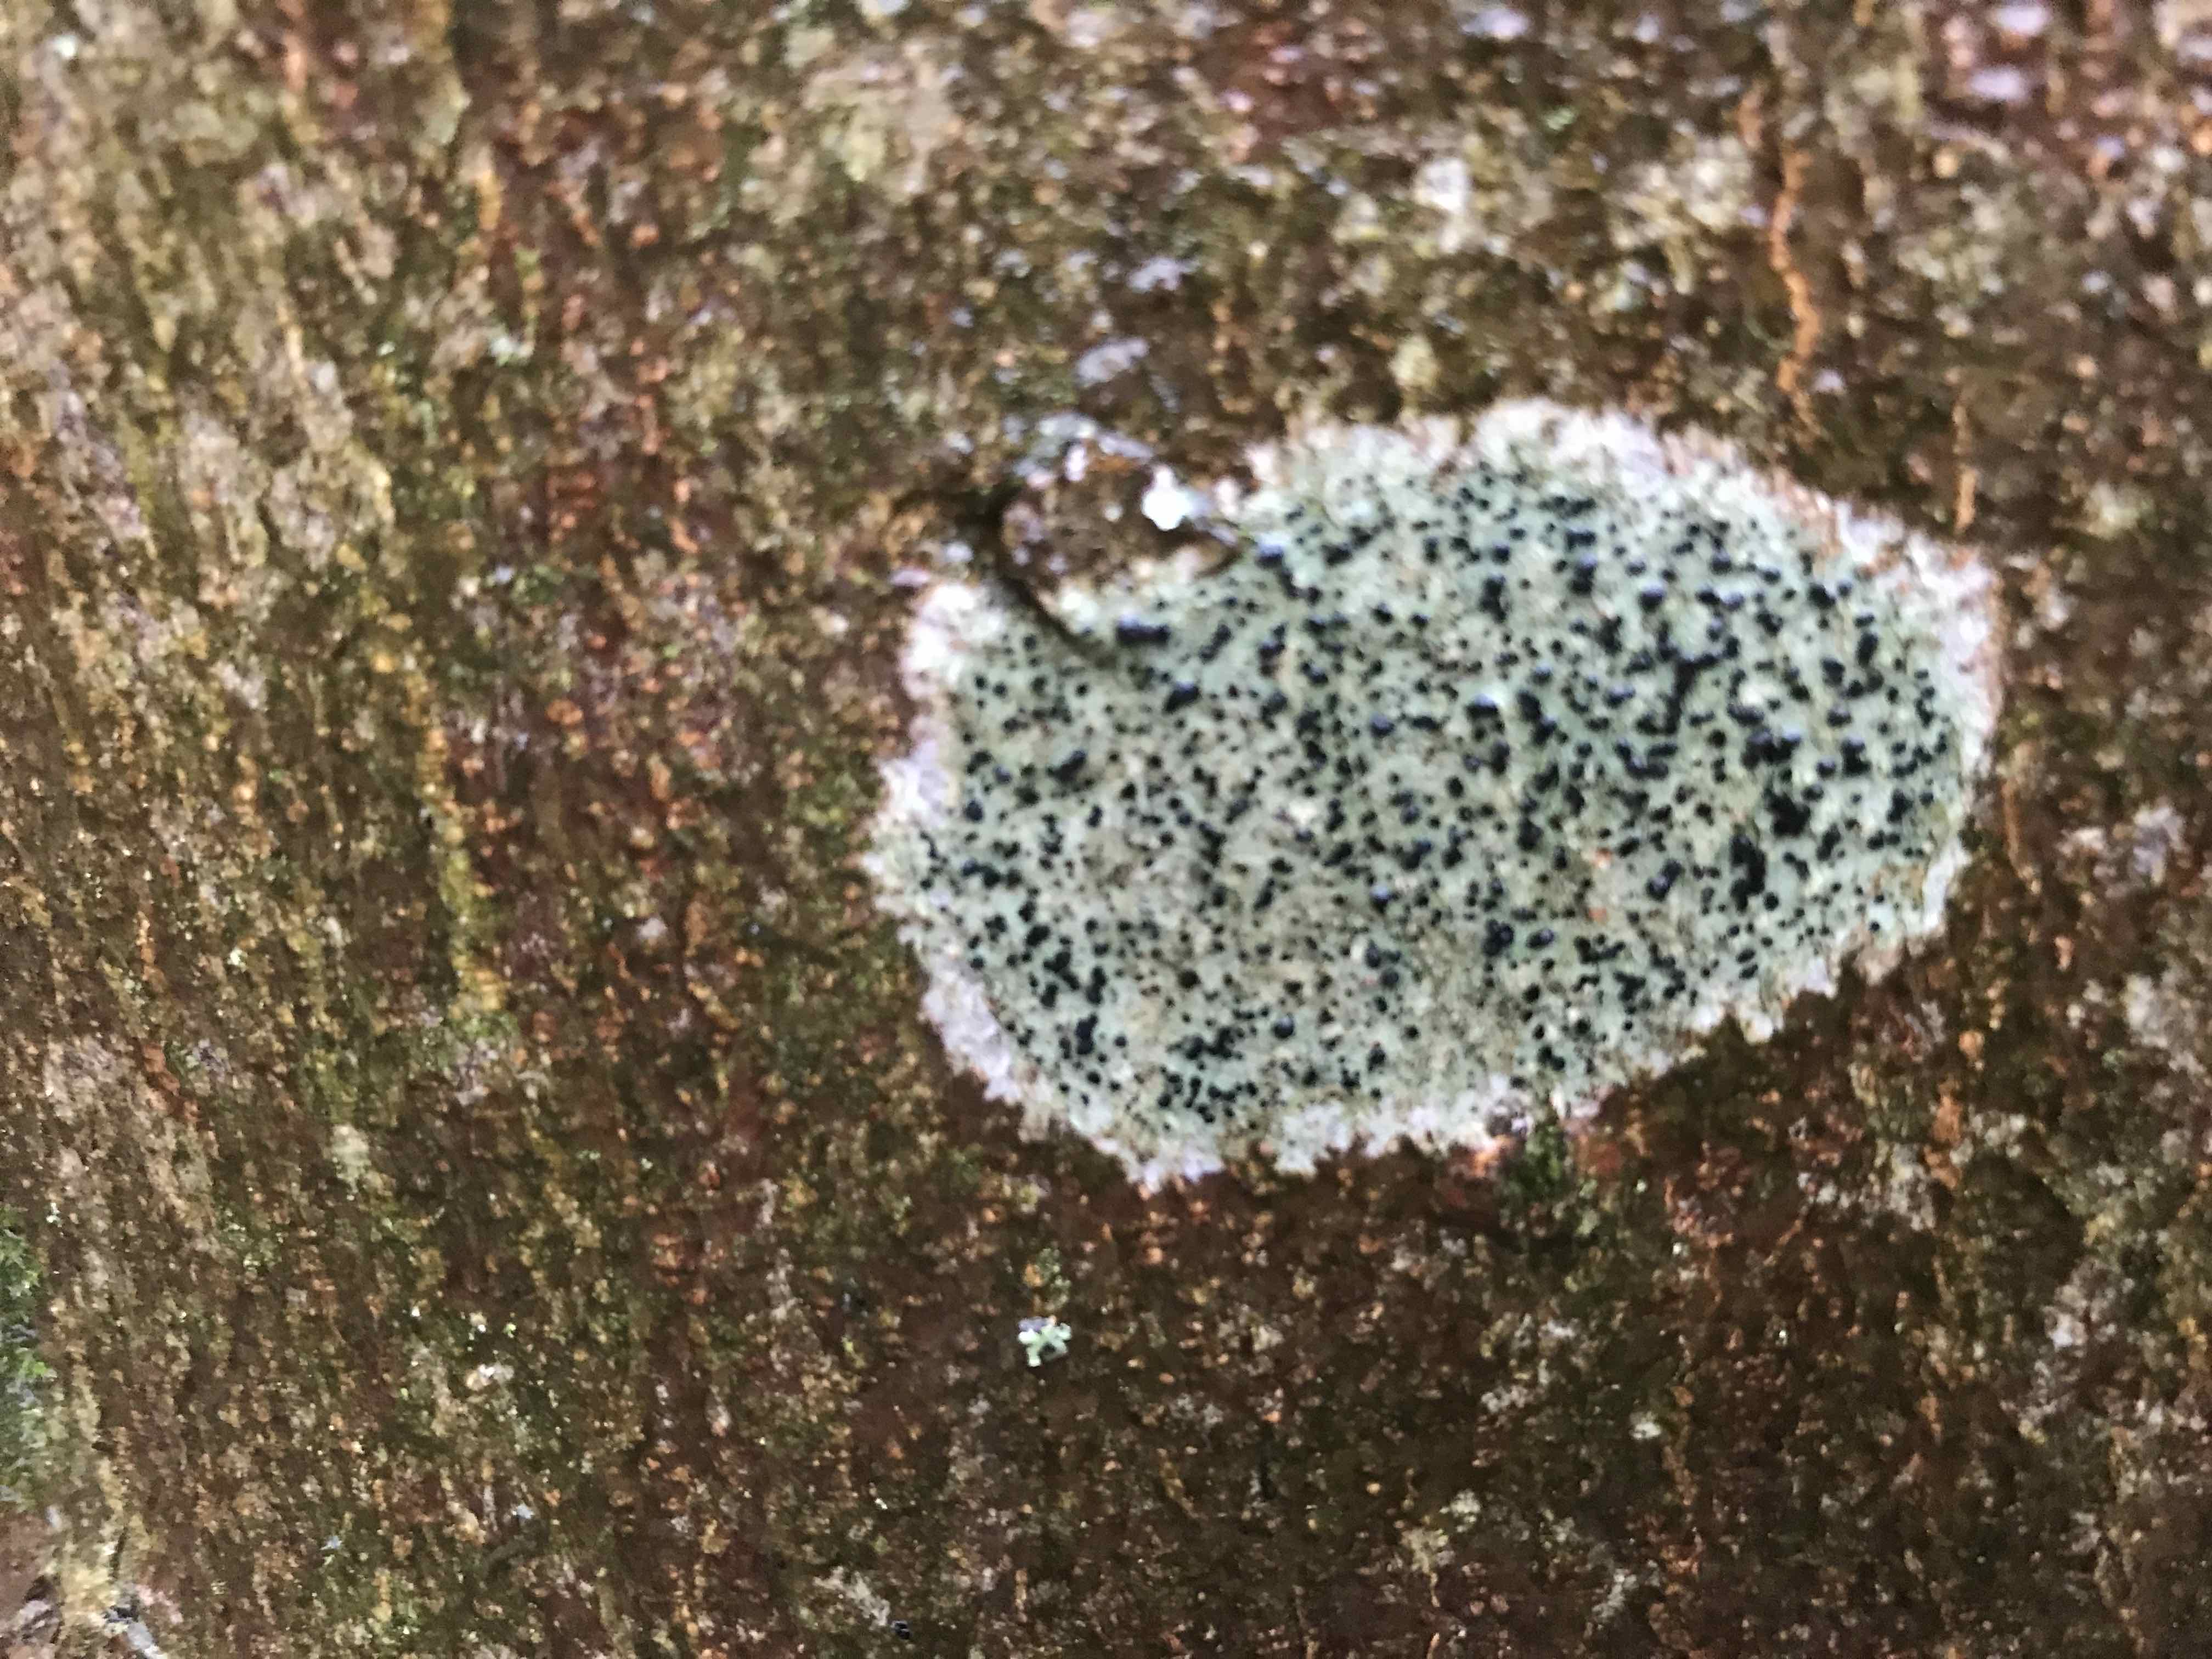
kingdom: Fungi
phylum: Ascomycota
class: Lecanoromycetes
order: Lecanorales
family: Lecanoraceae
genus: Lecidella
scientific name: Lecidella elaeochroma
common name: grågrøn skivelav
